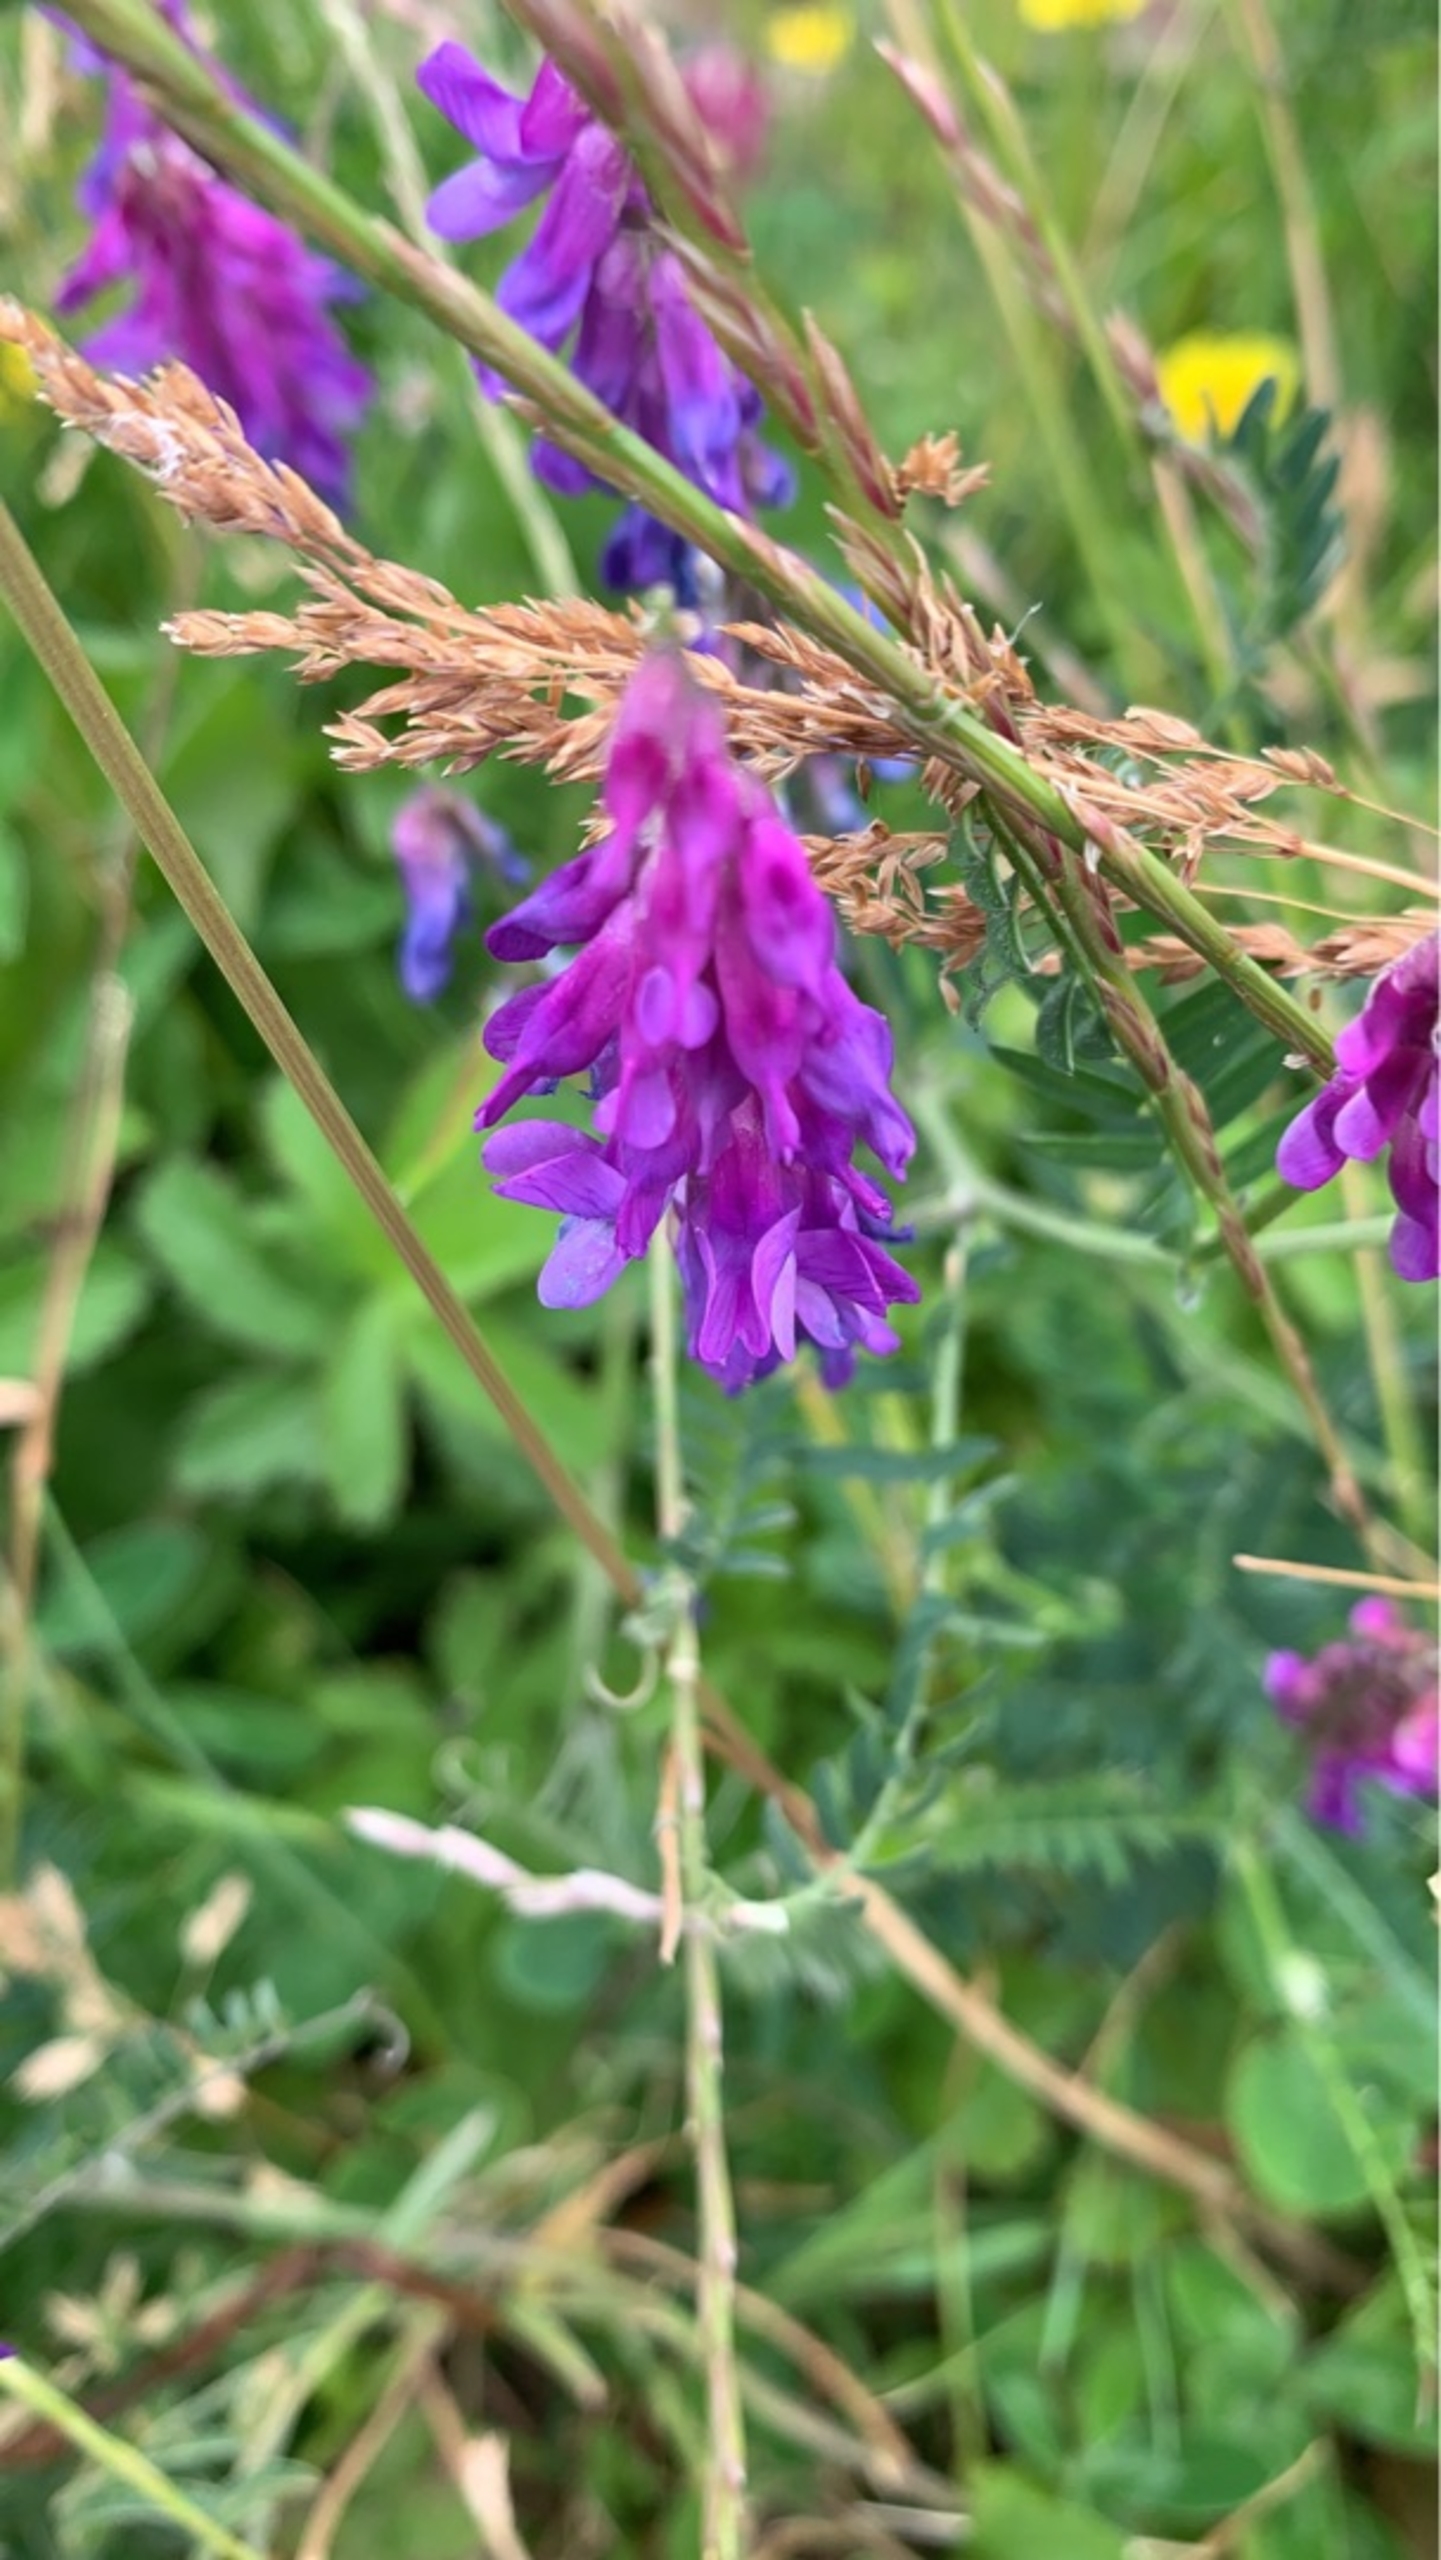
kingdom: Plantae
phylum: Tracheophyta
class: Magnoliopsida
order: Fabales
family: Fabaceae
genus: Vicia
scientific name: Vicia cracca
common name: Muse-vikke
